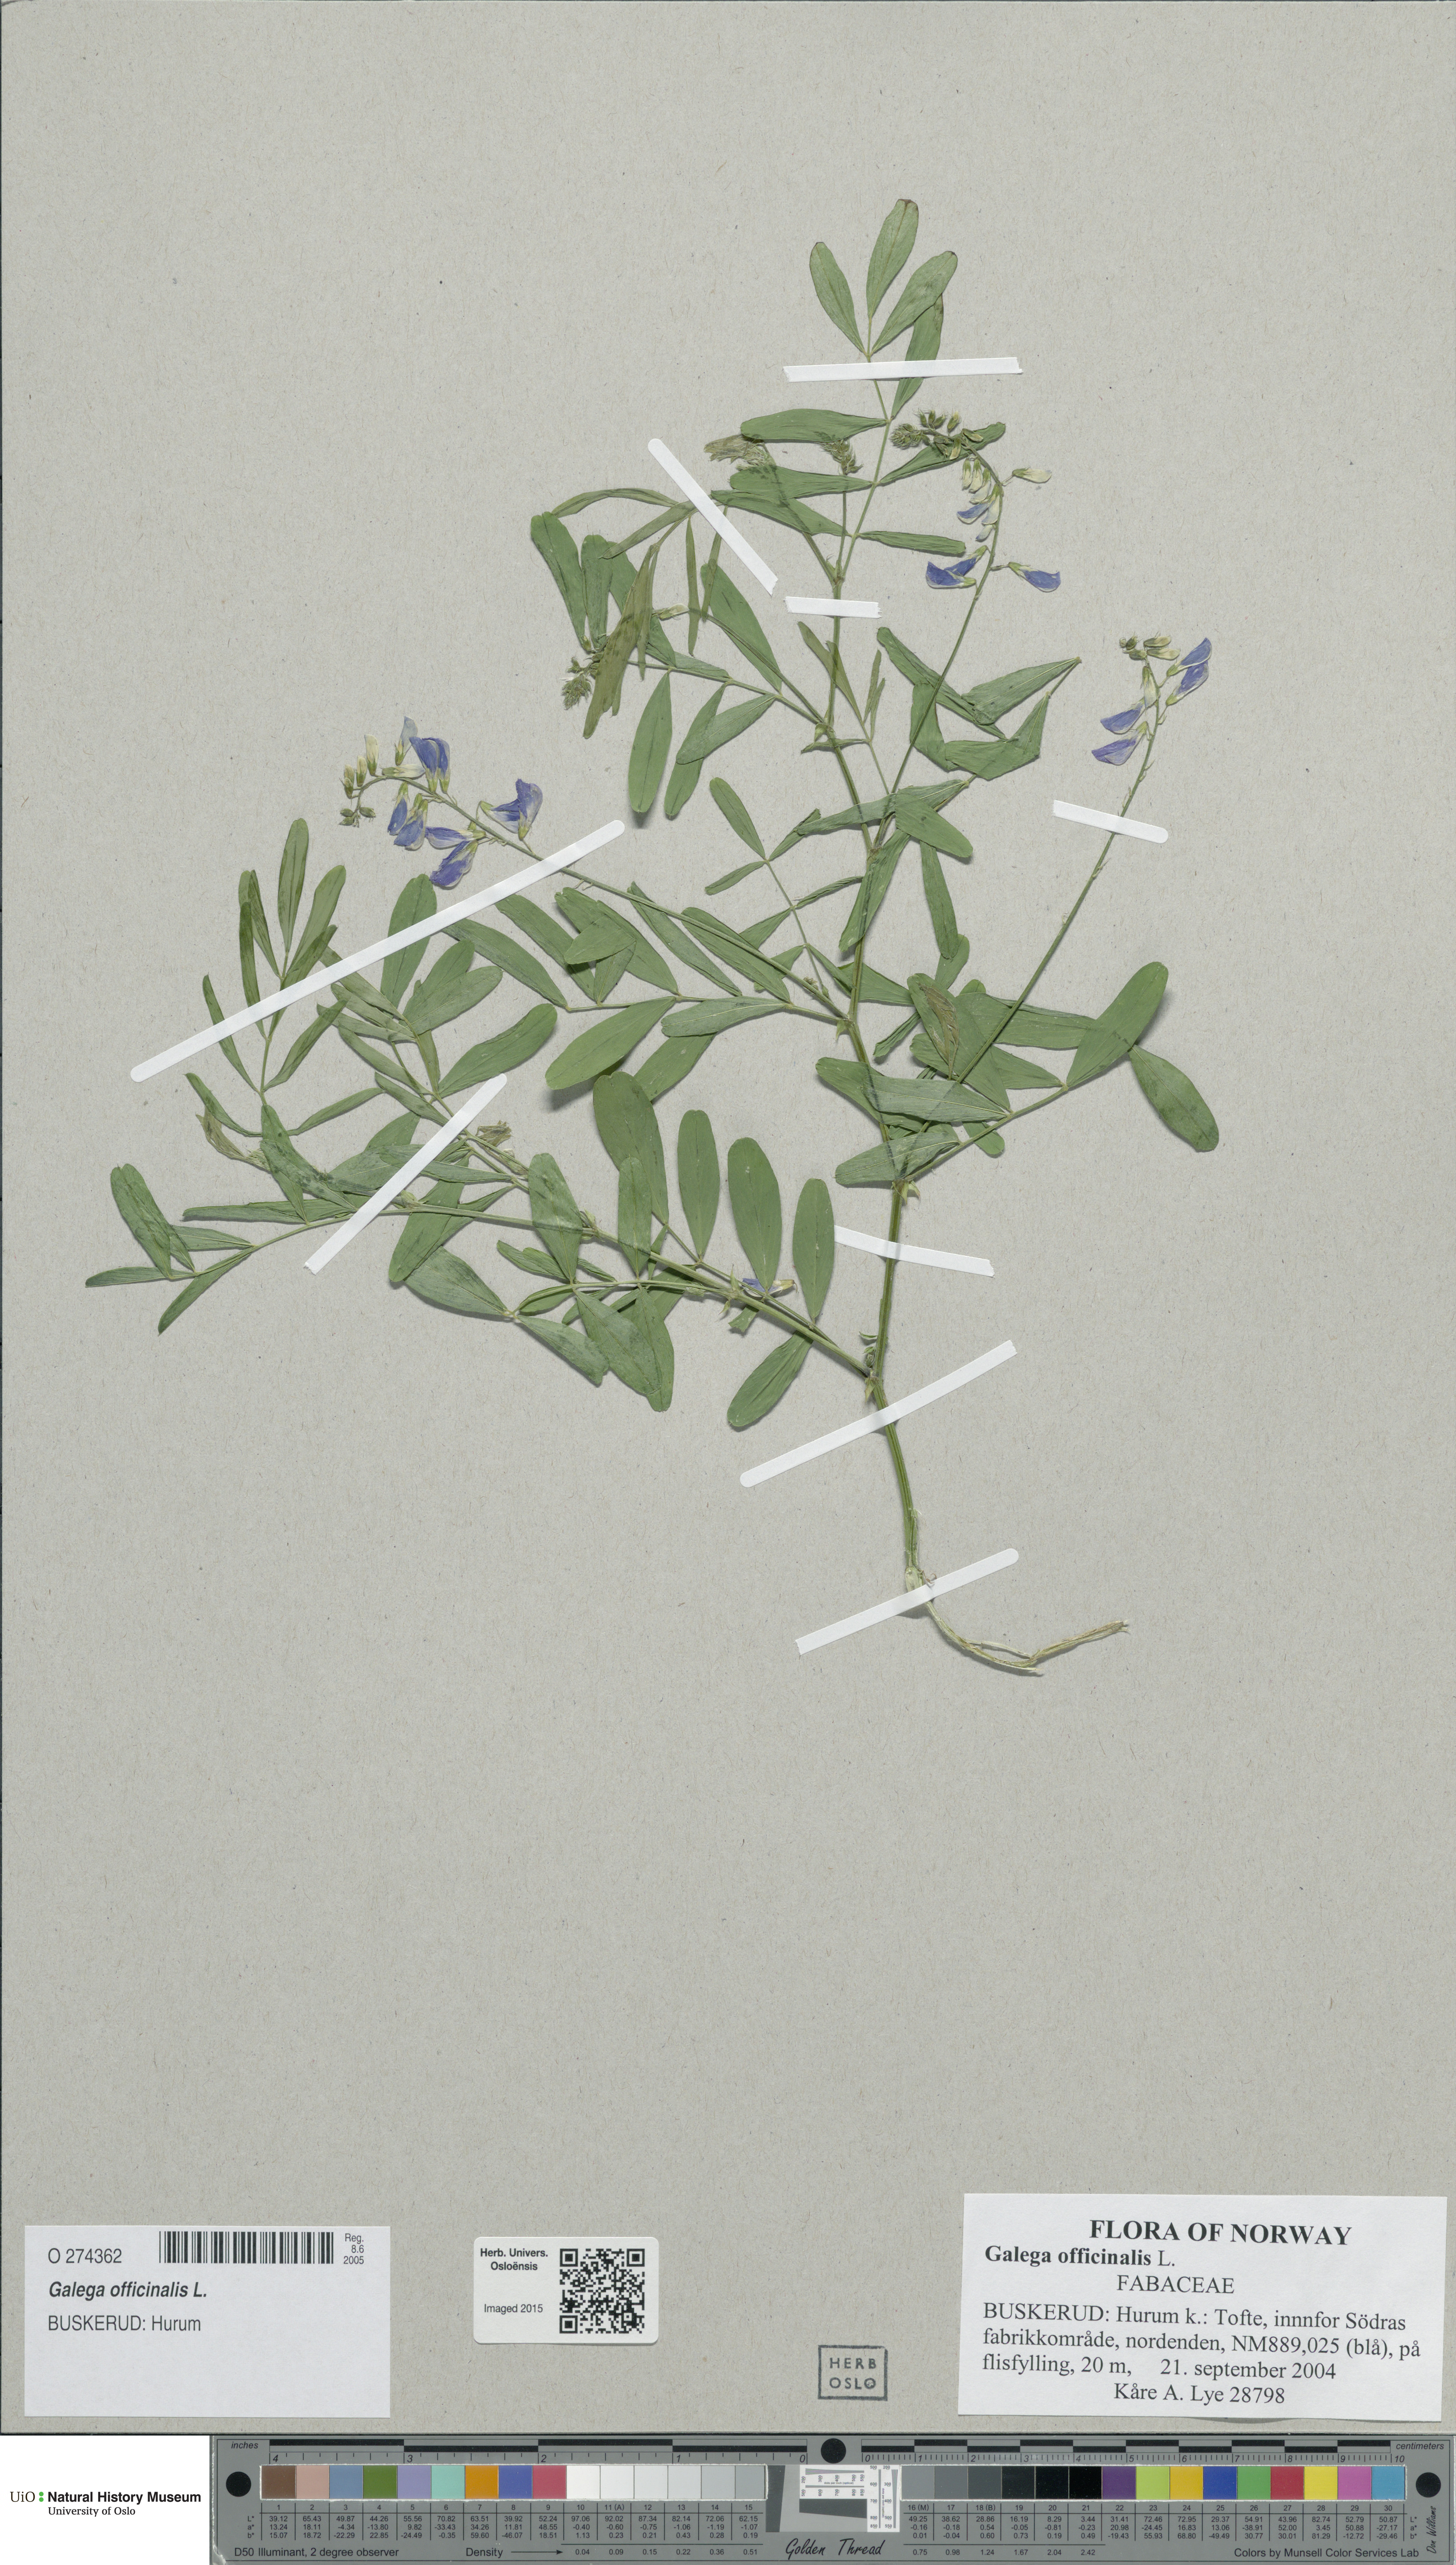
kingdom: Plantae
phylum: Tracheophyta
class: Magnoliopsida
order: Fabales
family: Fabaceae
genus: Galega
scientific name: Galega officinalis
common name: Goat's-rue
